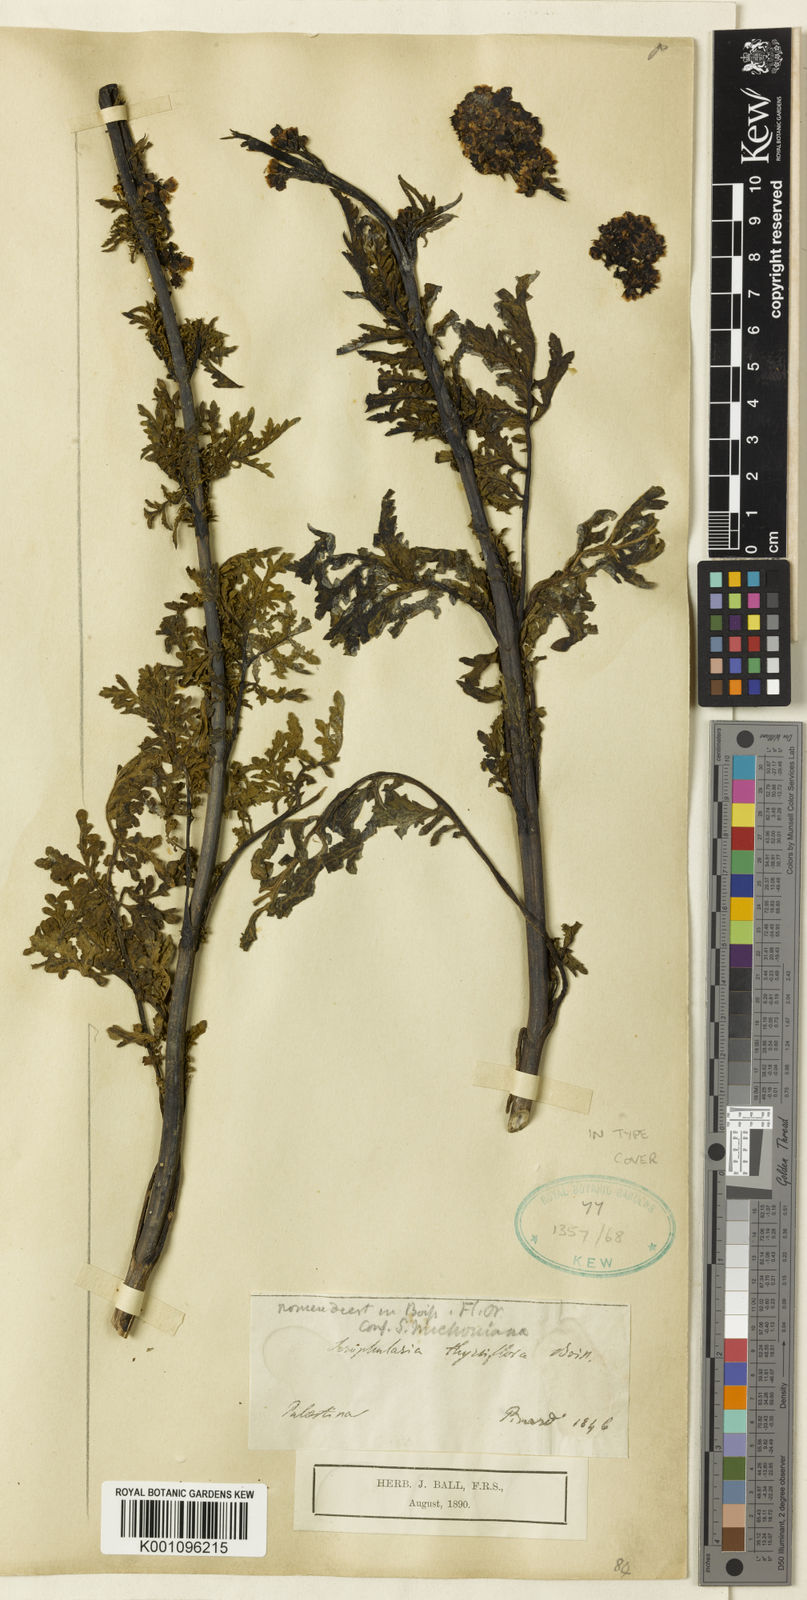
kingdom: Plantae
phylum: Tracheophyta
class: Magnoliopsida
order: Lamiales
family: Scrophulariaceae
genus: Scrophularia
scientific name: Scrophularia rubricaulis
